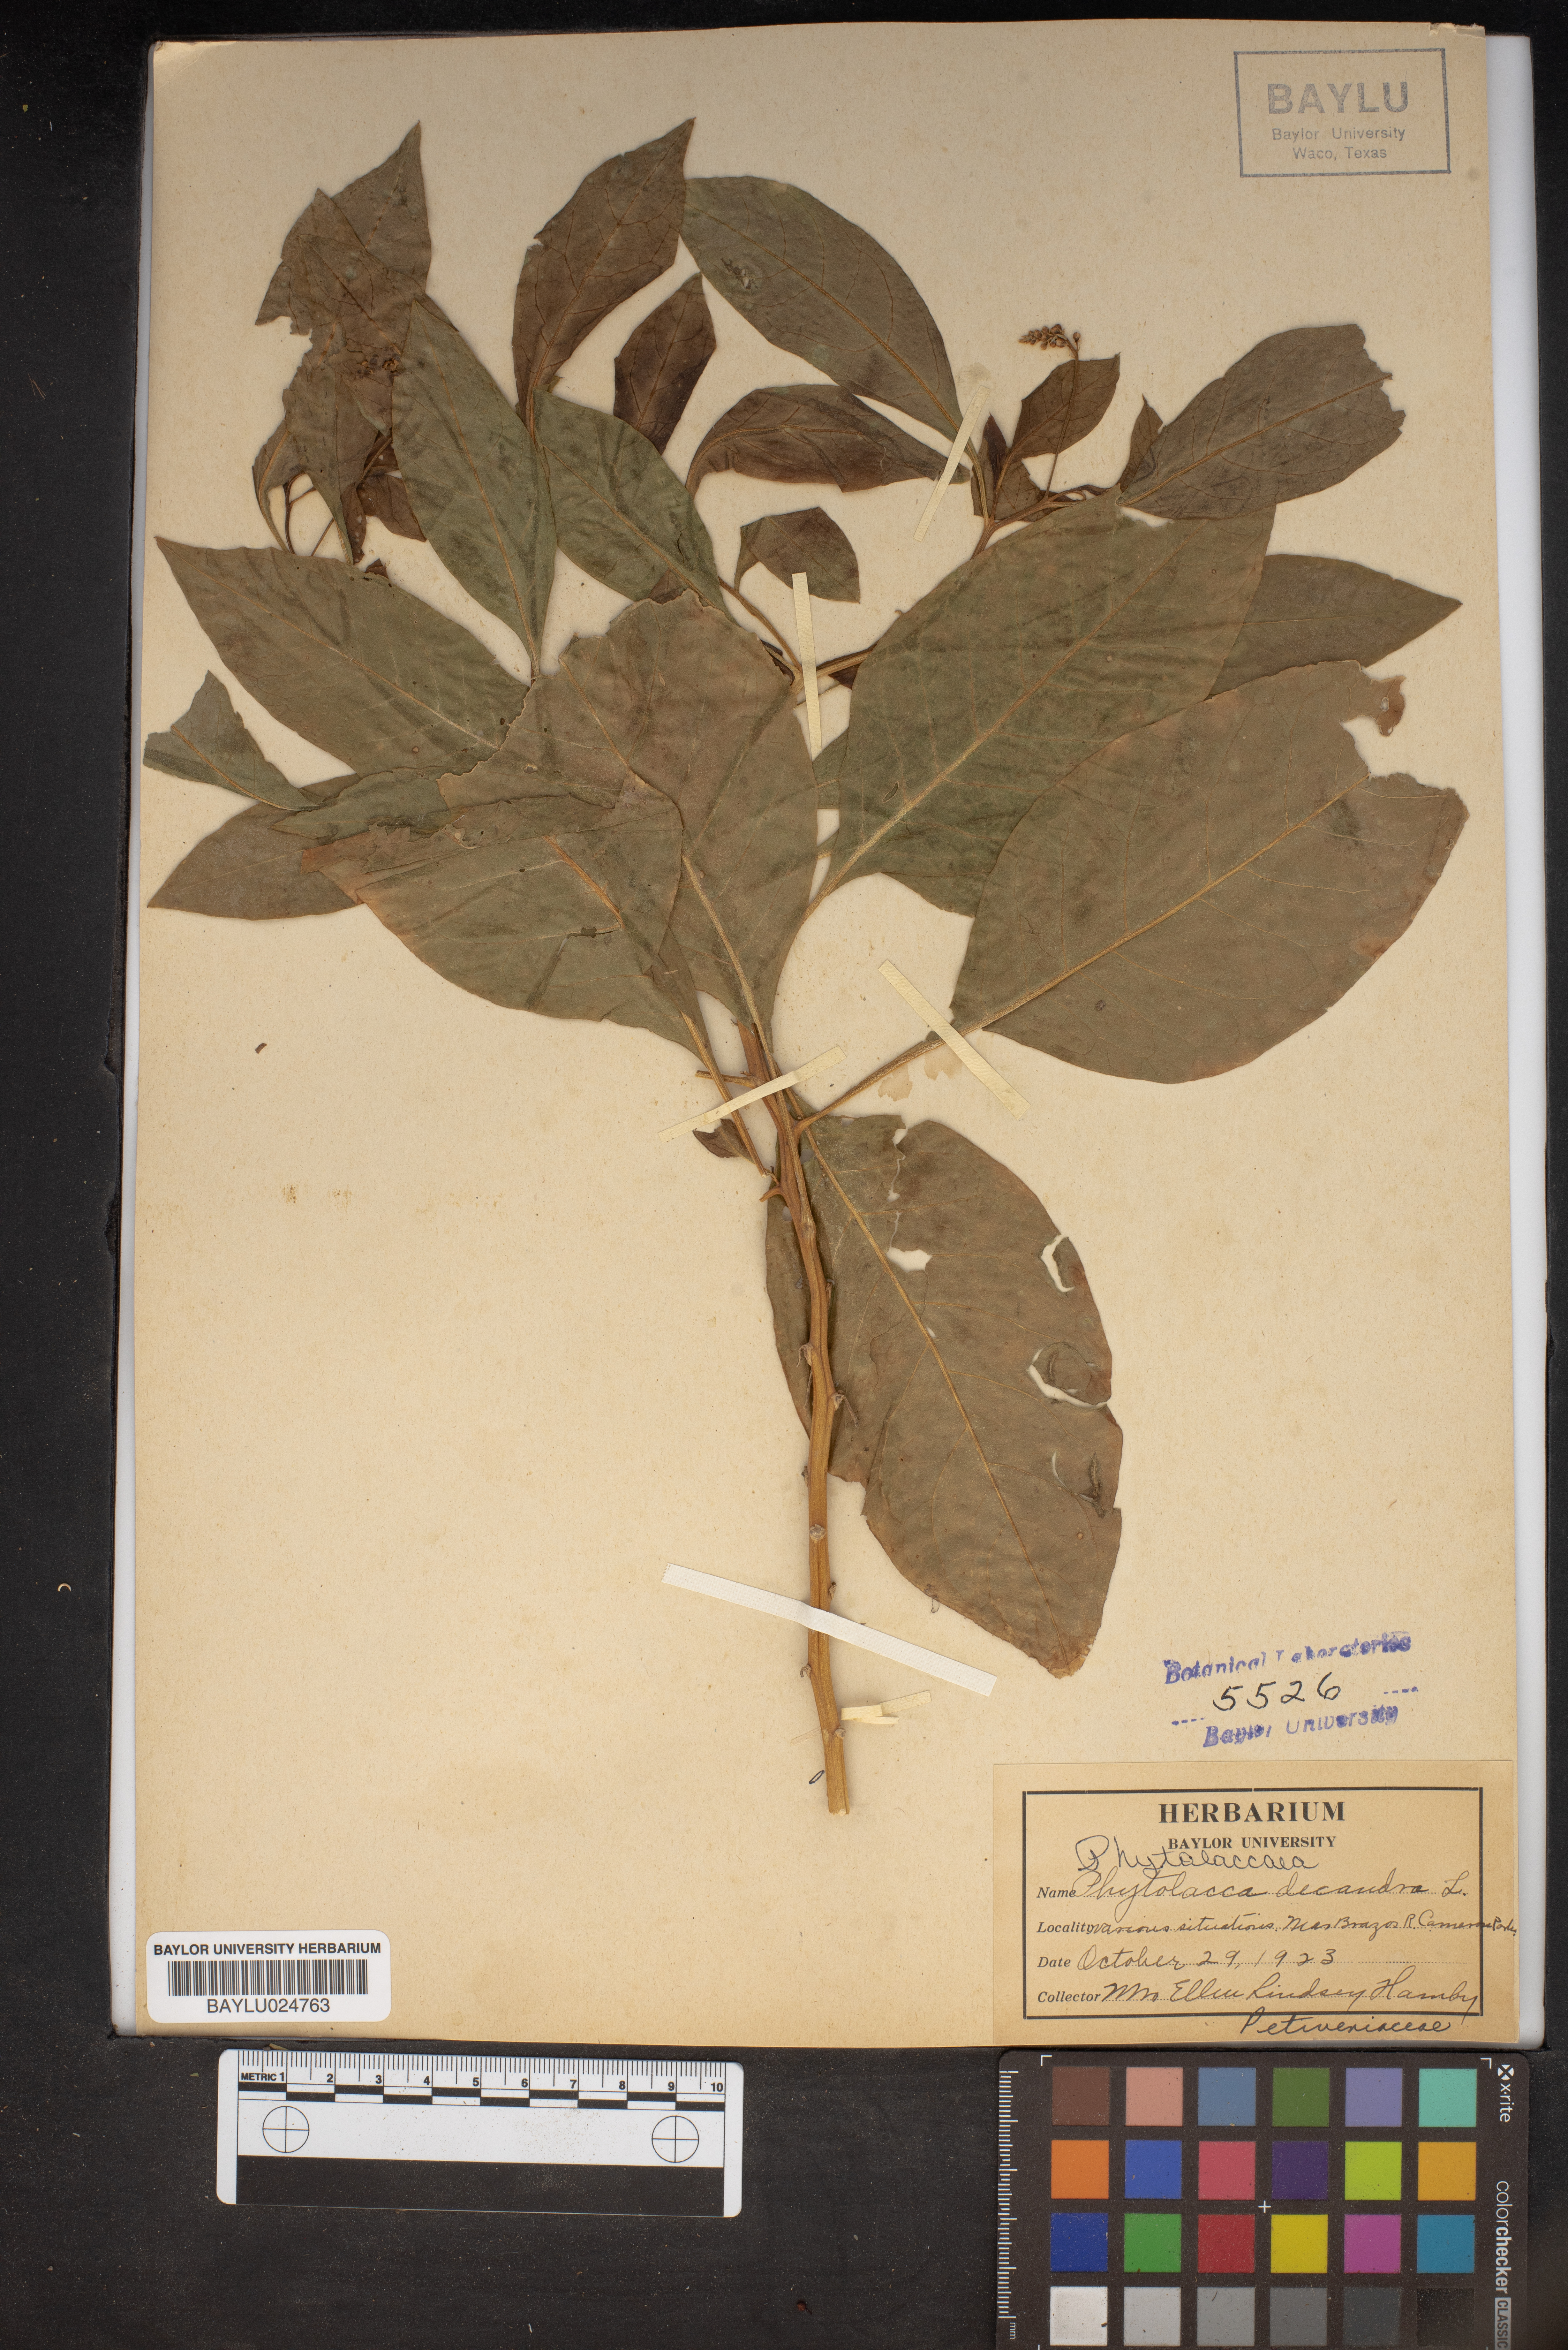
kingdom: Plantae
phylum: Tracheophyta
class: Magnoliopsida
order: Caryophyllales
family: Phytolaccaceae
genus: Phytolacca
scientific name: Phytolacca americana
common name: American pokeweed
